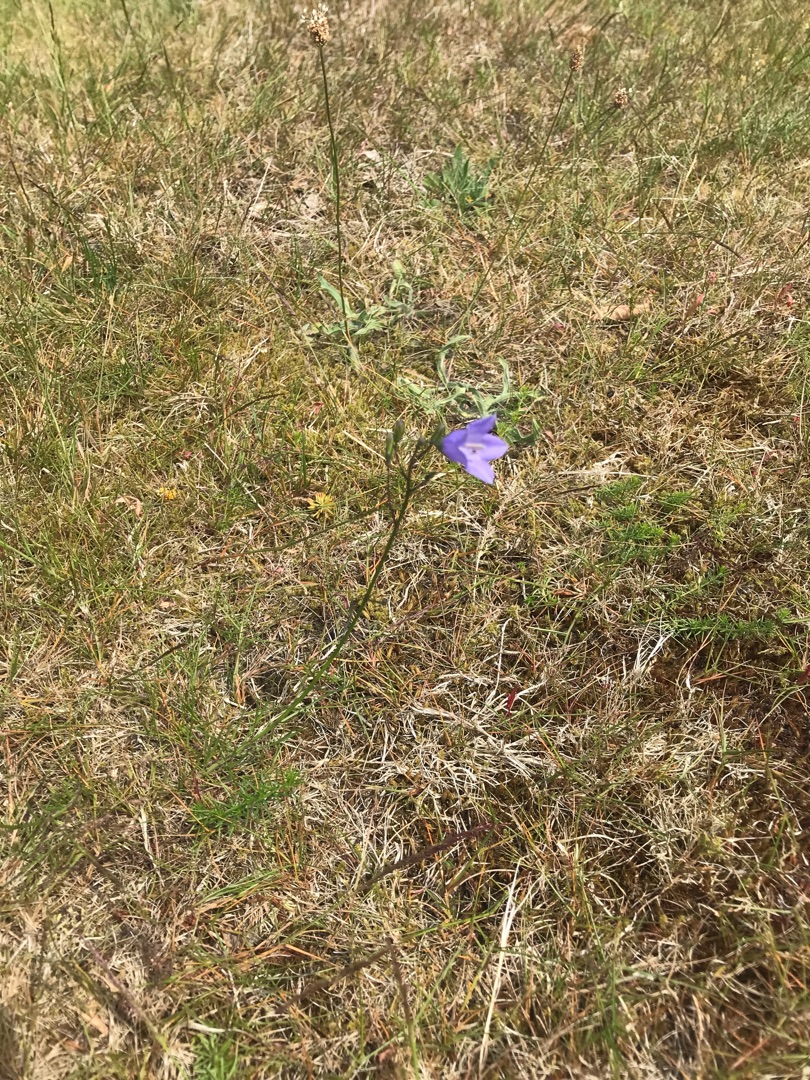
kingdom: Plantae
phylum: Tracheophyta
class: Magnoliopsida
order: Asterales
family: Campanulaceae
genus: Campanula
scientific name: Campanula rotundifolia
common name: Liden klokke
